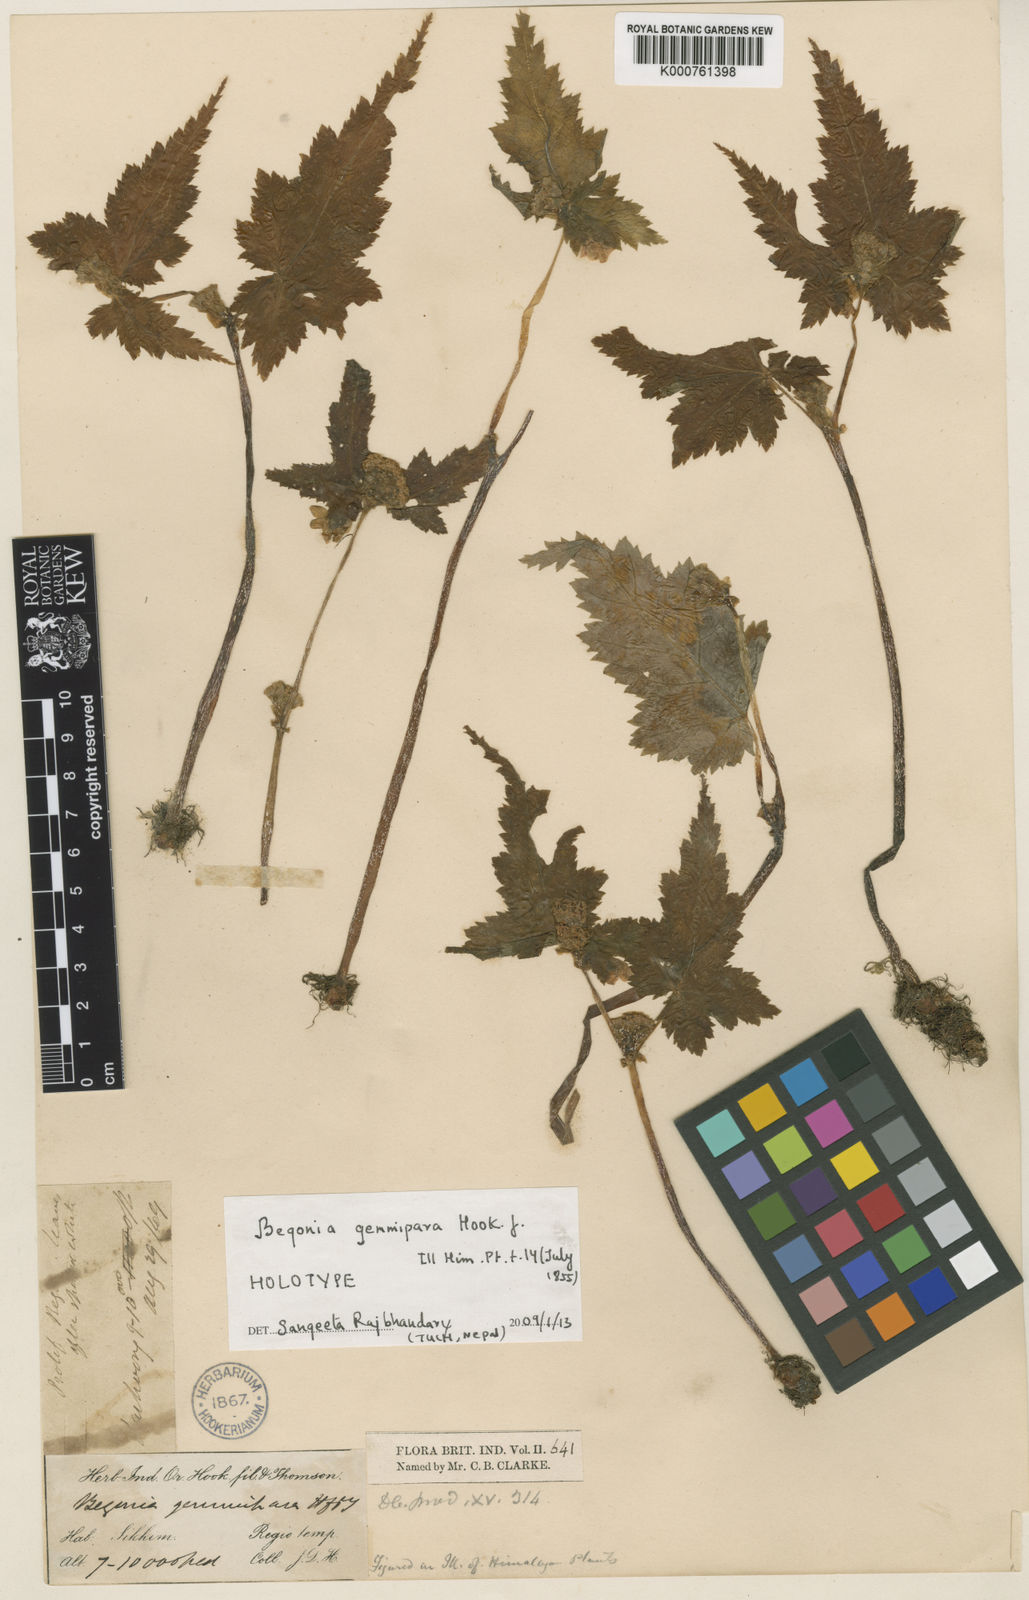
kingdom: Plantae
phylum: Tracheophyta
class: Magnoliopsida
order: Cucurbitales
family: Begoniaceae
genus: Begonia
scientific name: Begonia gemmipara
